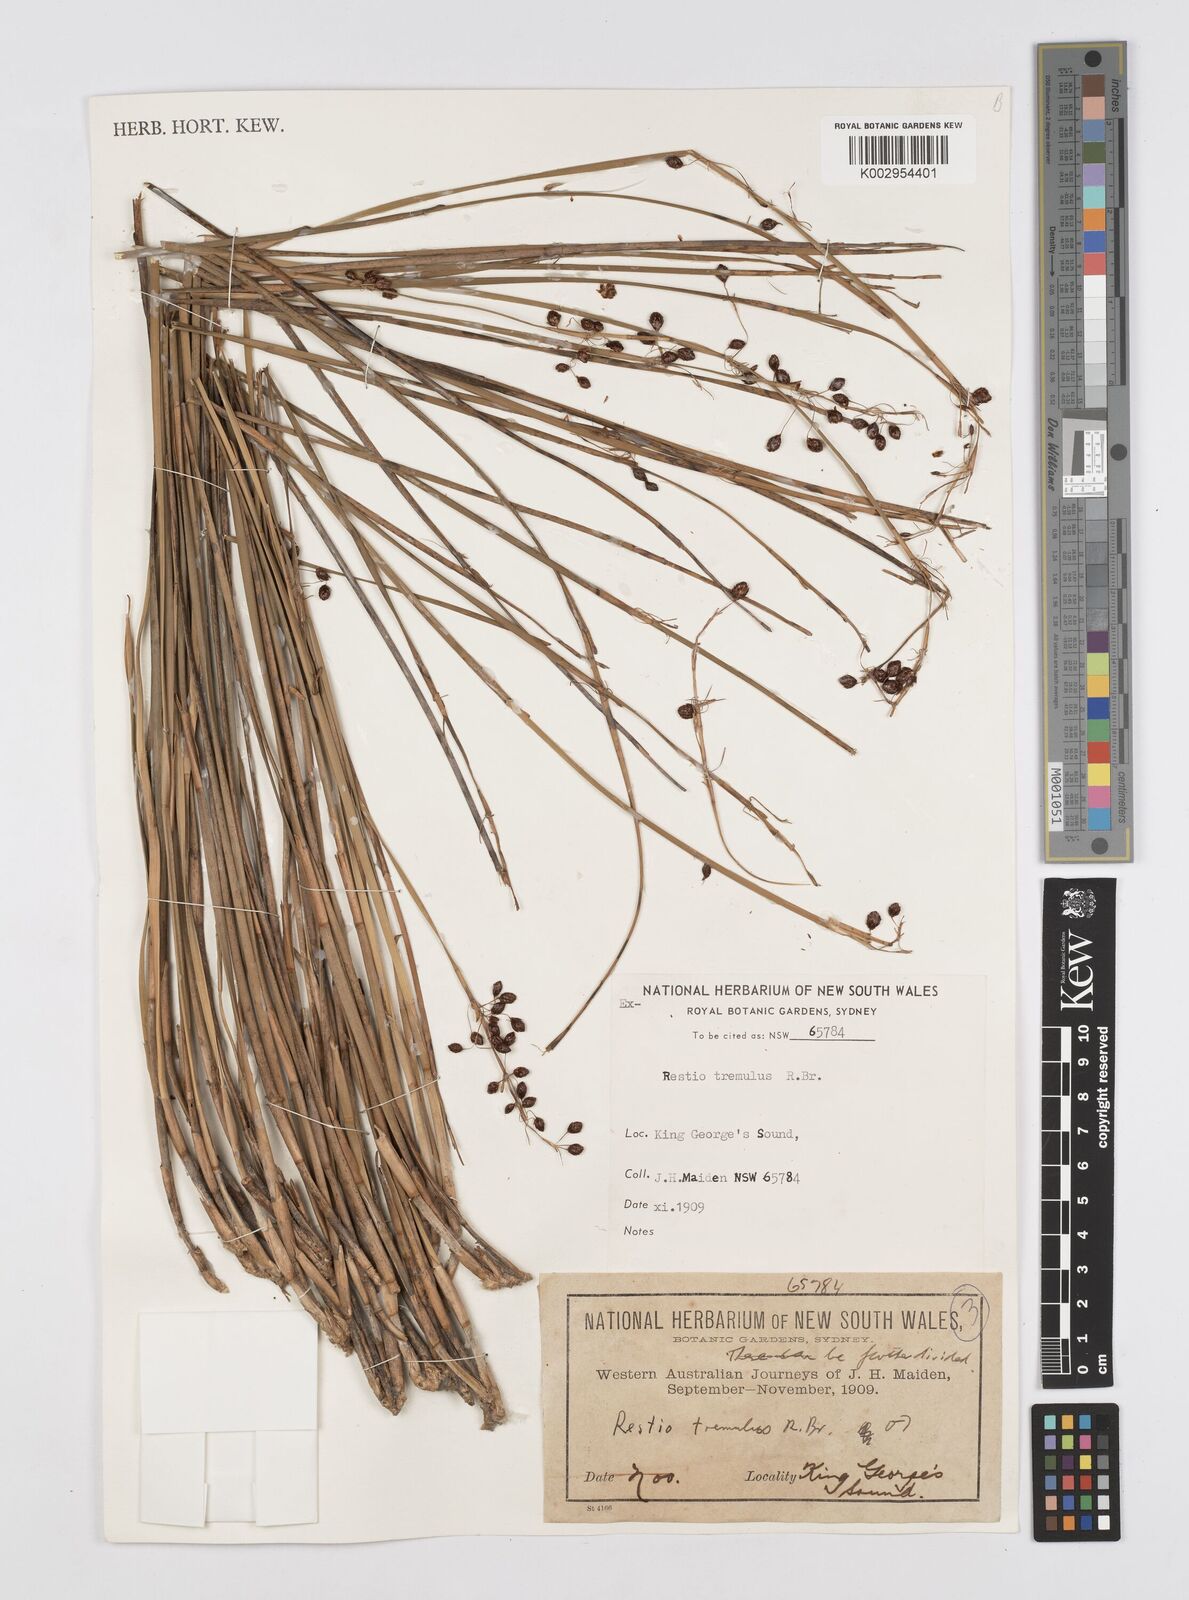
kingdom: Plantae
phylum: Tracheophyta
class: Liliopsida
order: Poales
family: Restionaceae
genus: Tremulina
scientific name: Tremulina tremula
